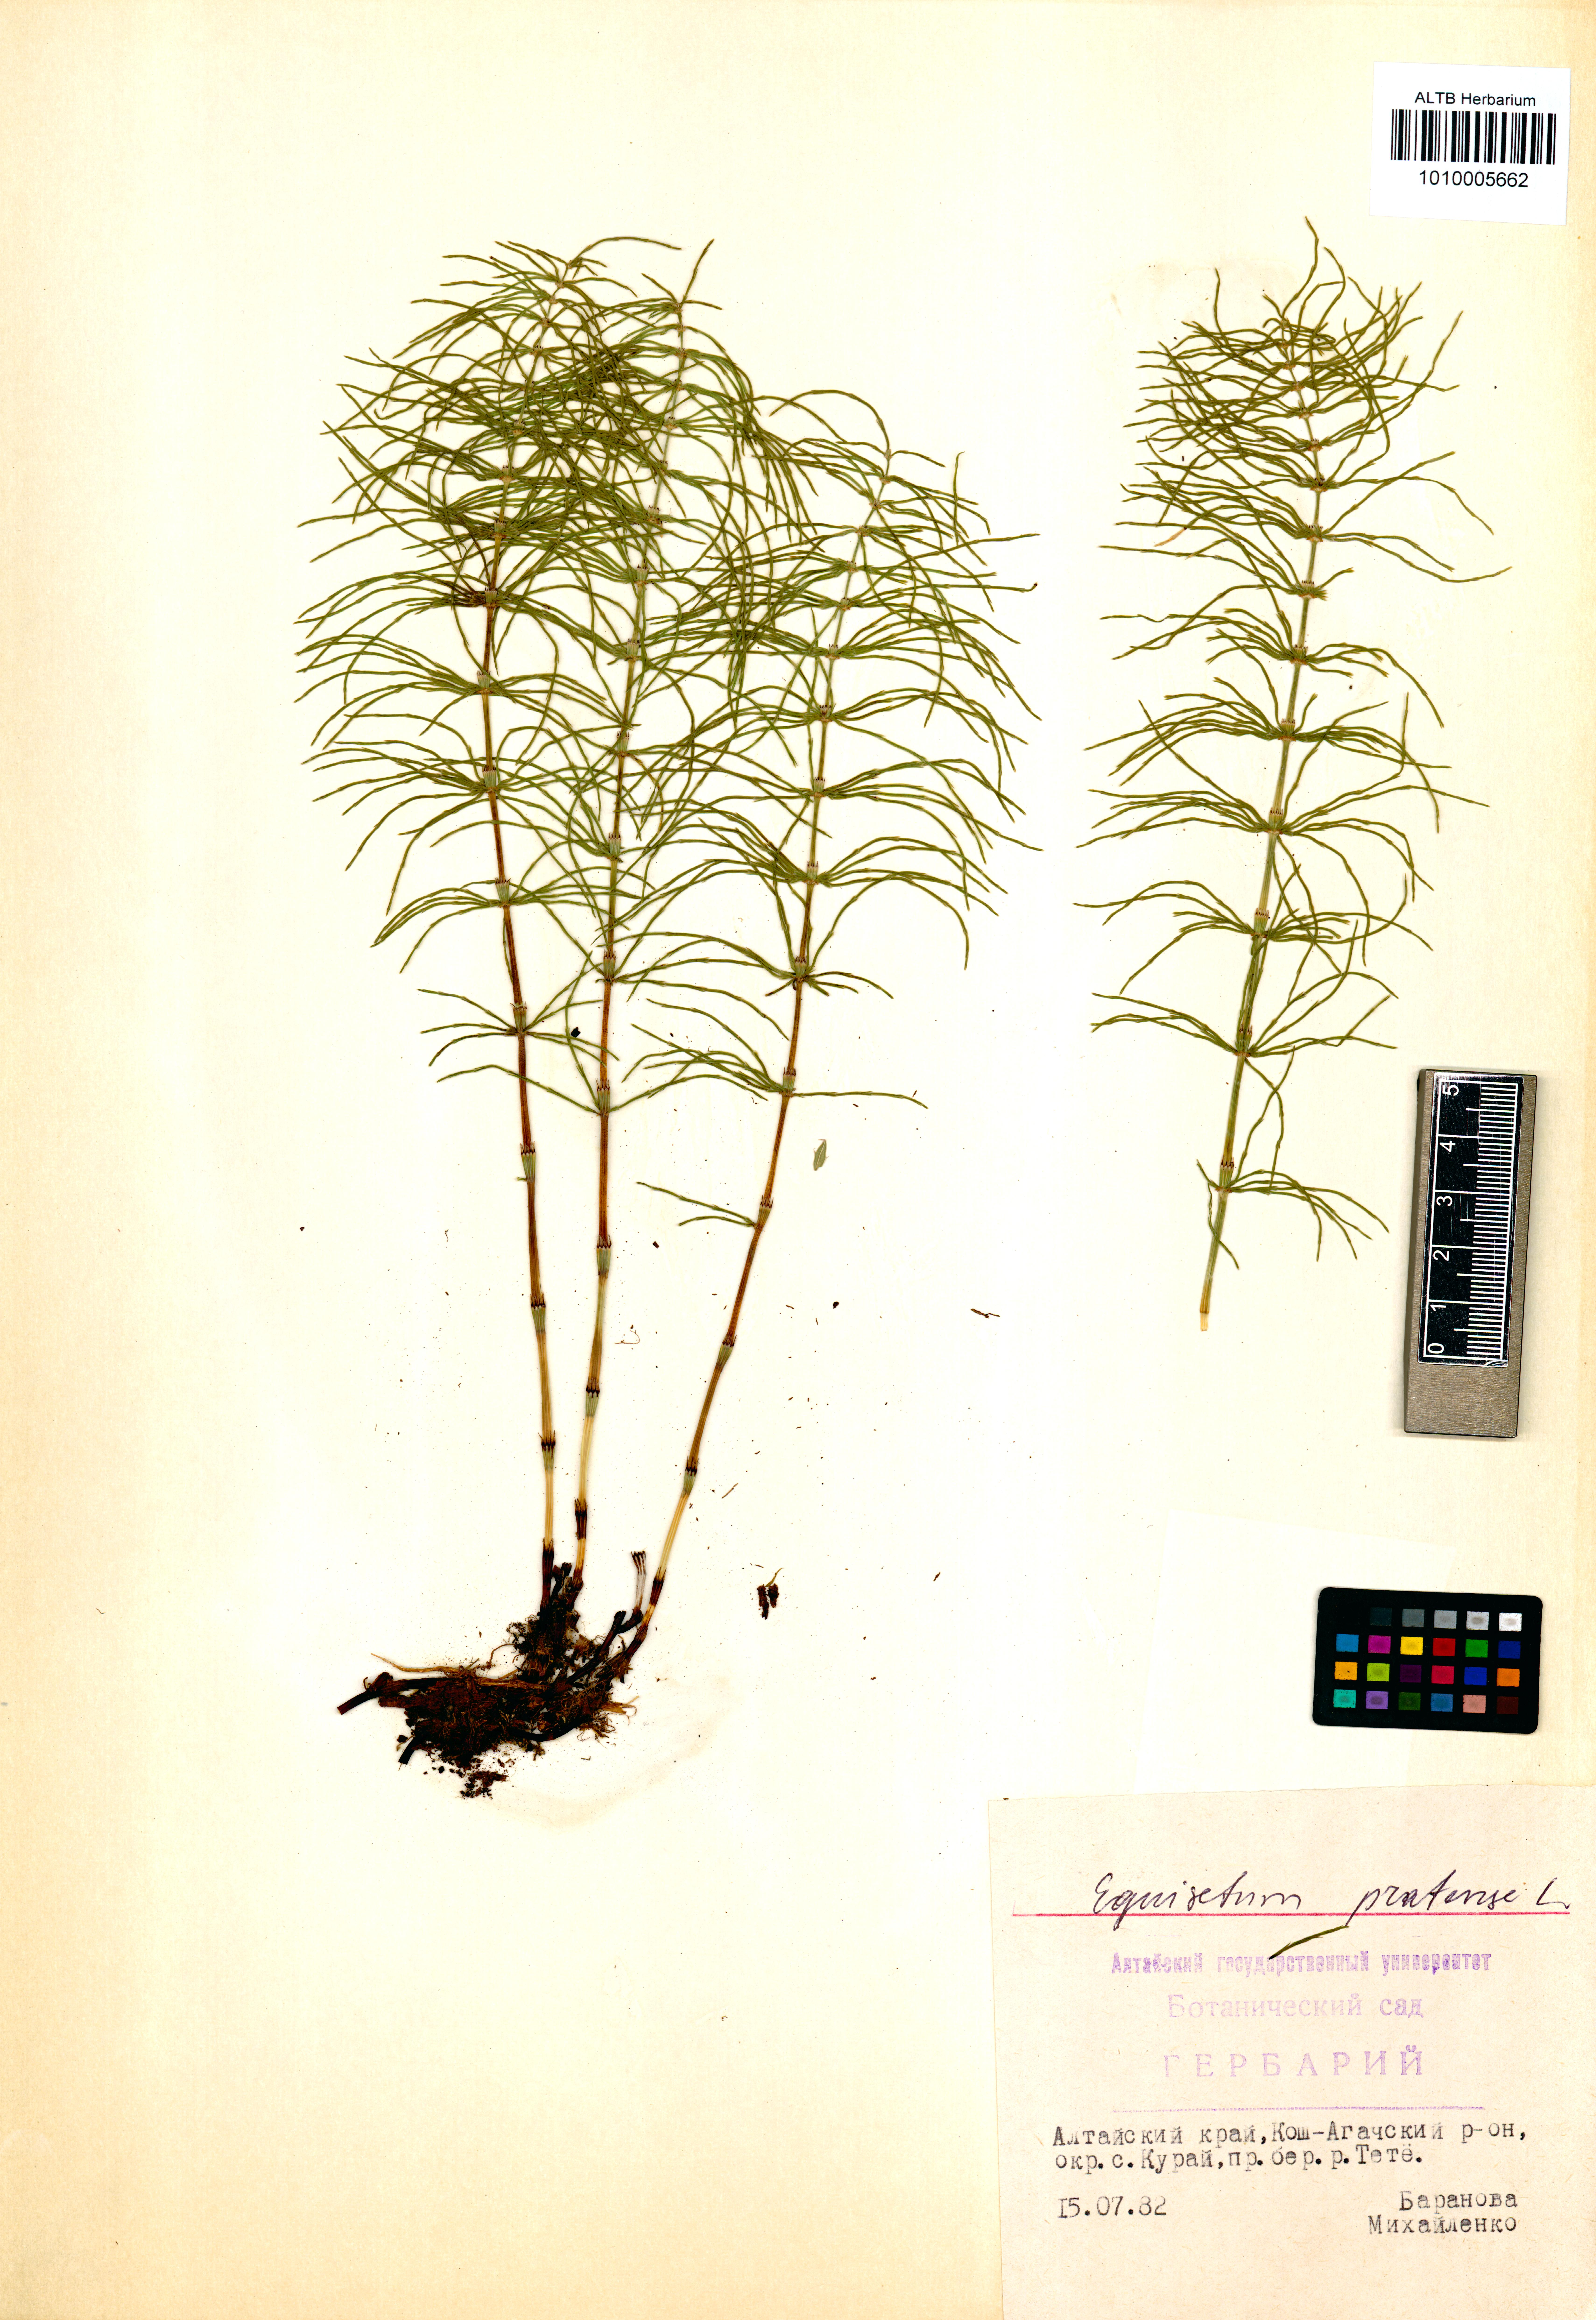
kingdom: Plantae
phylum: Tracheophyta
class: Polypodiopsida
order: Equisetales
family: Equisetaceae
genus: Equisetum
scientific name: Equisetum pratense
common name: Meadow horsetail
